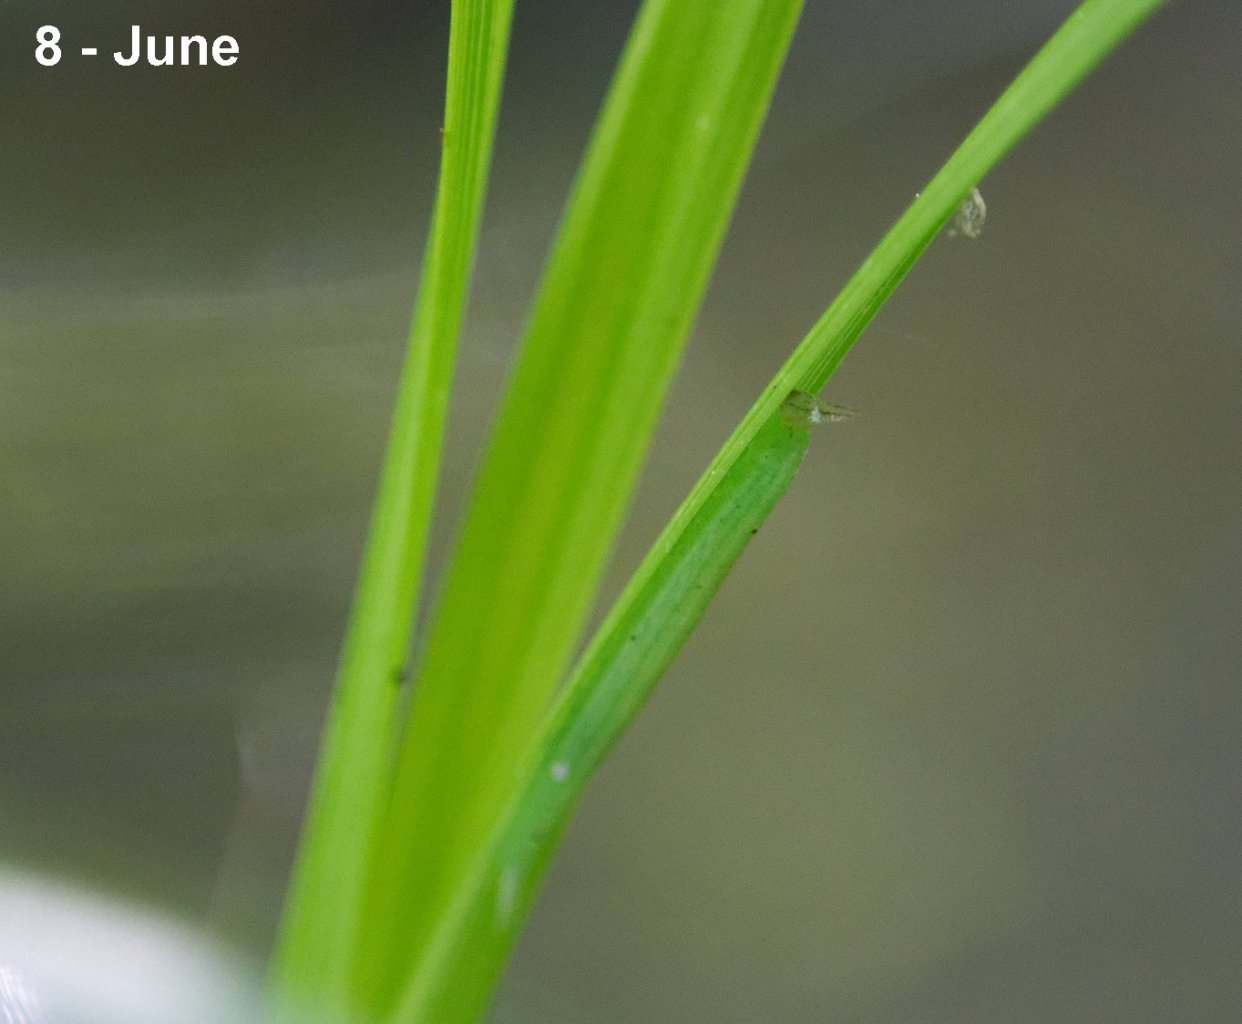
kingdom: Animalia
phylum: Arthropoda
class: Insecta
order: Lepidoptera
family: Nymphalidae
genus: Lethe
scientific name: Lethe eurydice
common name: Appalachian Eyed Brown
